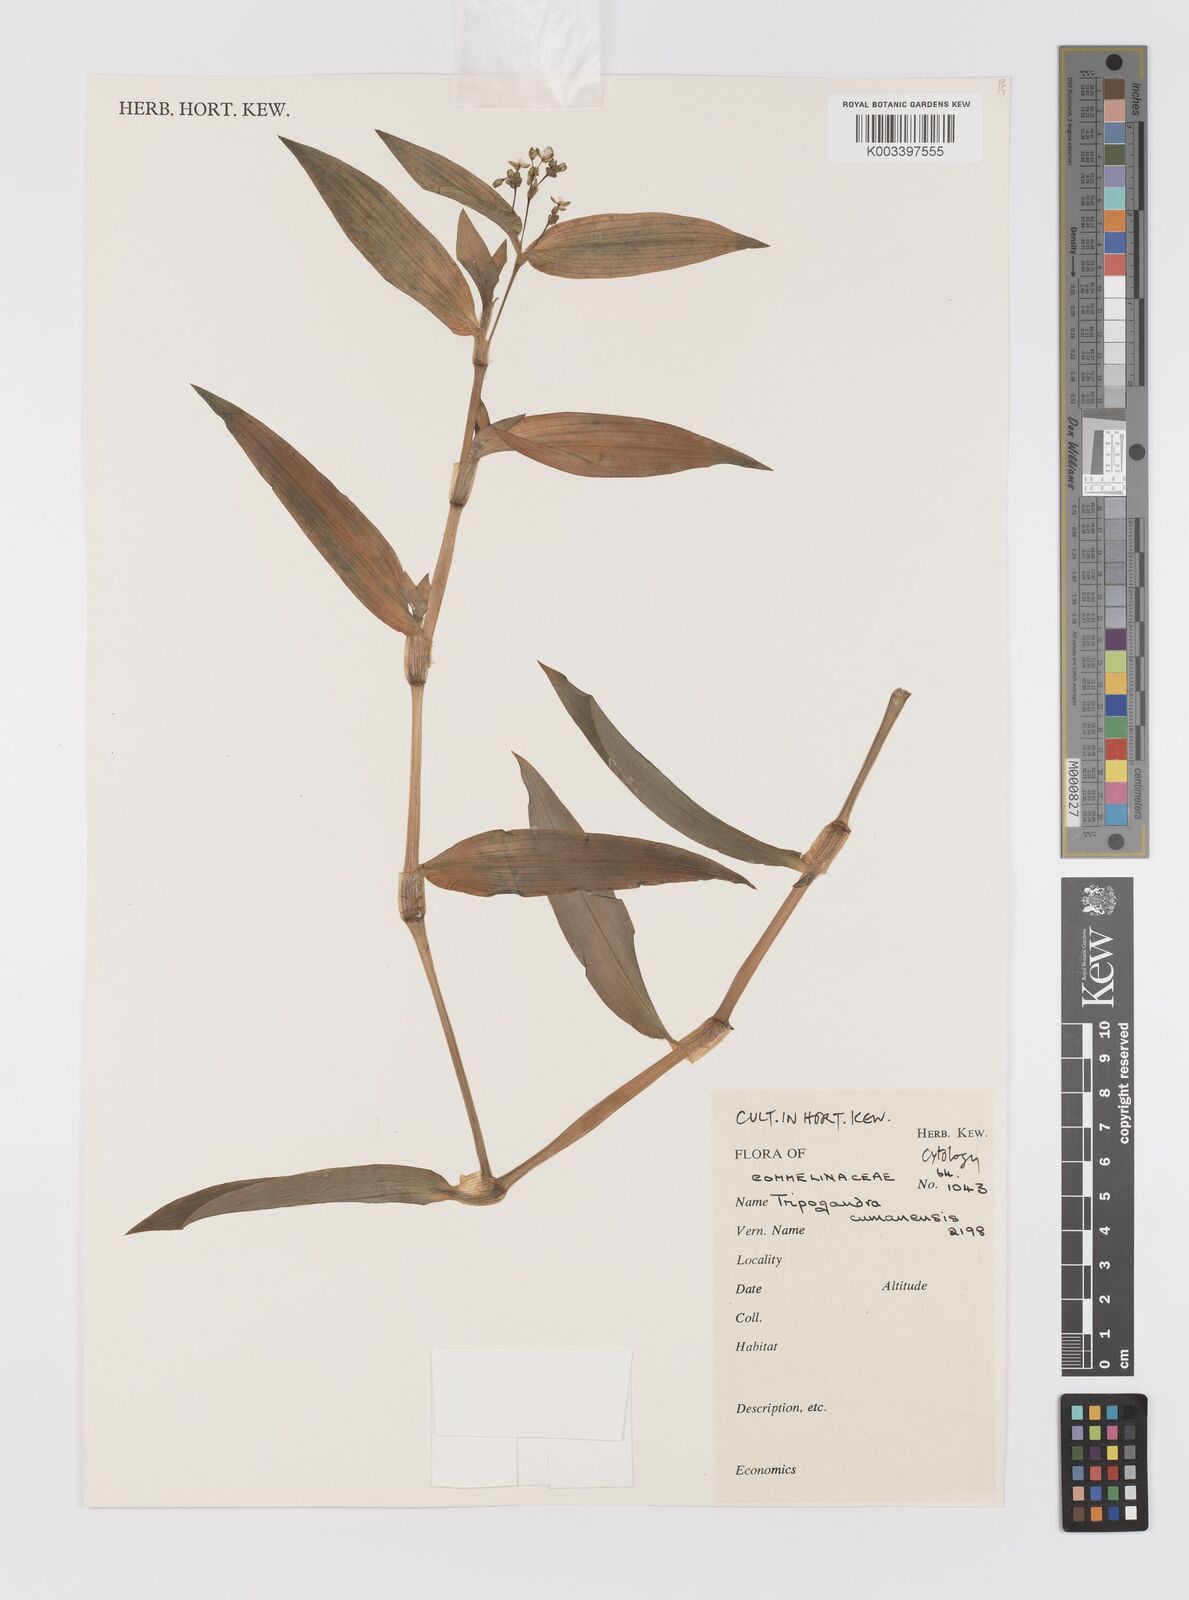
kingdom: Plantae
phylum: Tracheophyta
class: Liliopsida
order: Commelinales
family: Commelinaceae
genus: Callisia
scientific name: Callisia serrulata
